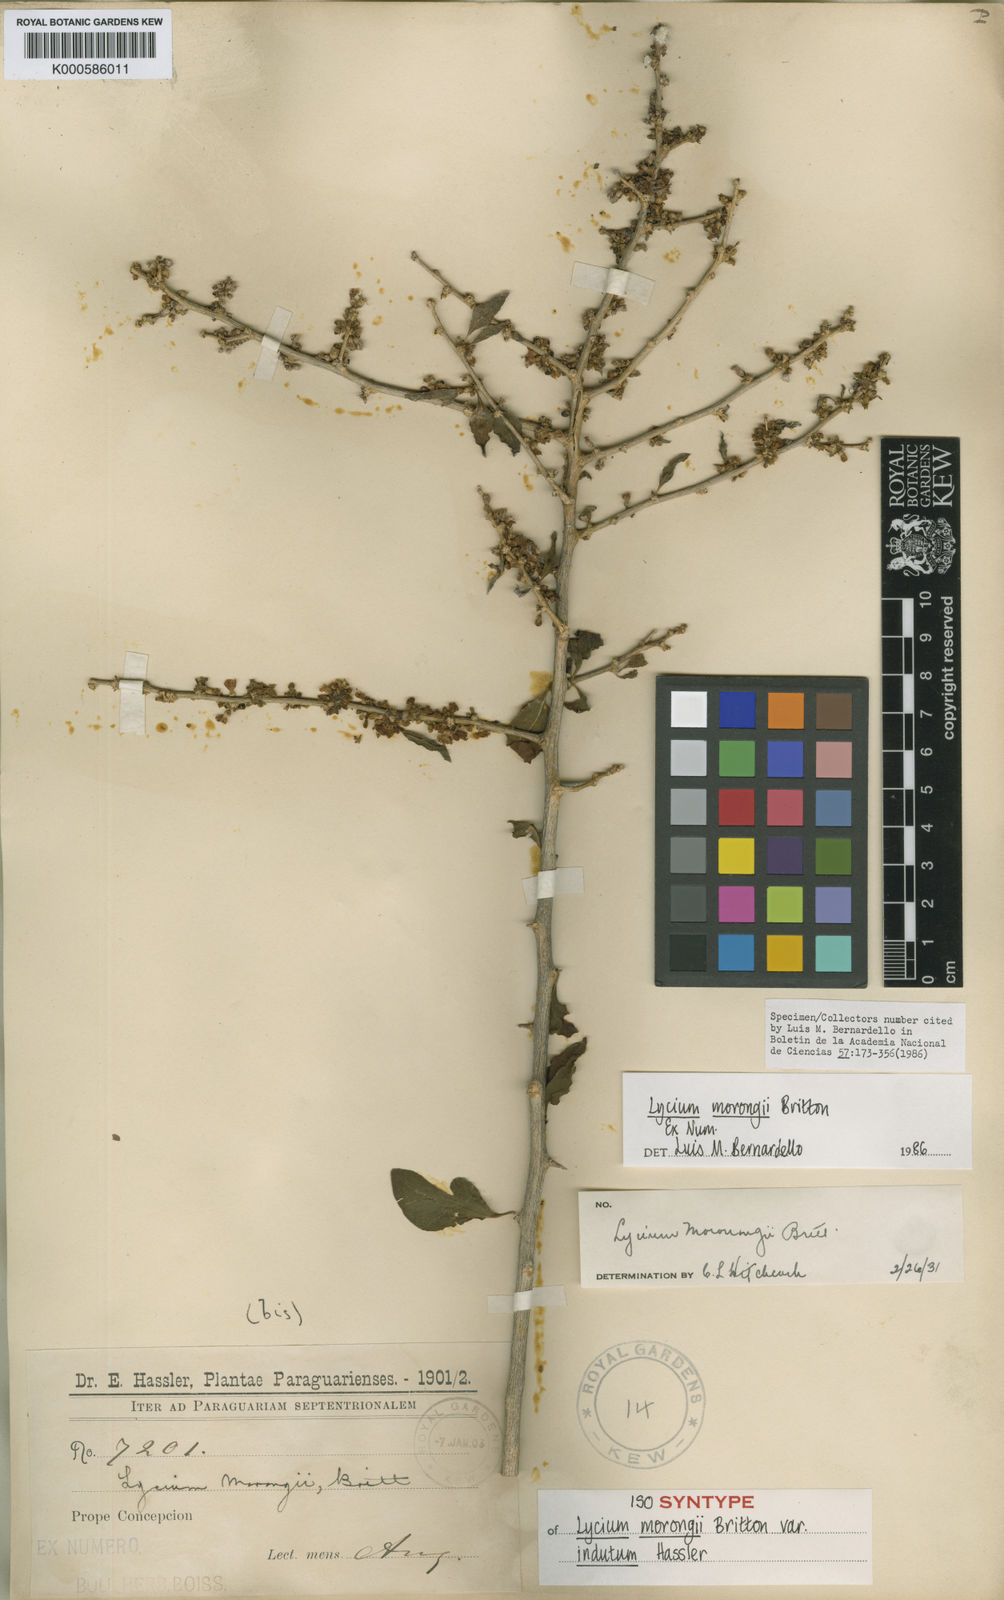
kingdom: Plantae
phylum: Tracheophyta
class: Magnoliopsida
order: Solanales
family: Solanaceae
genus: Lycium
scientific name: Lycium glomeratum
